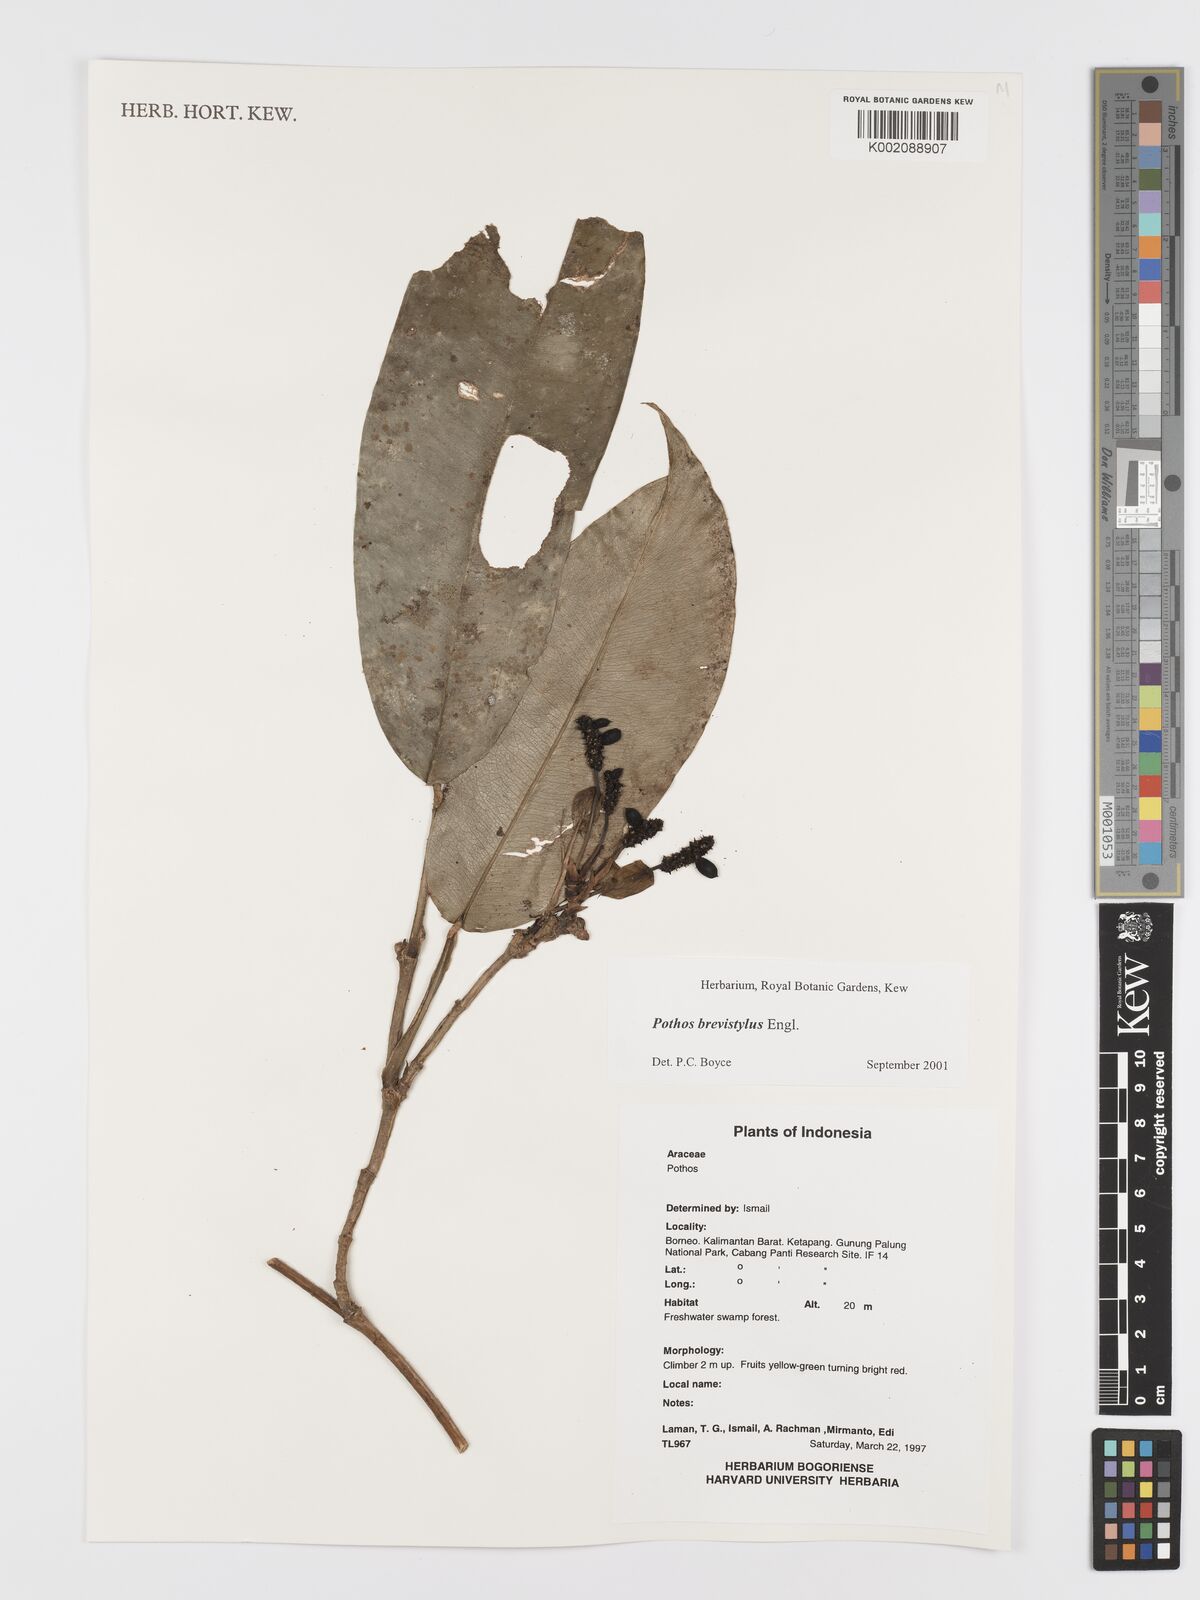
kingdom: Plantae
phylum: Tracheophyta
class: Liliopsida
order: Alismatales
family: Araceae
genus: Pothos
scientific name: Pothos brevistylus
